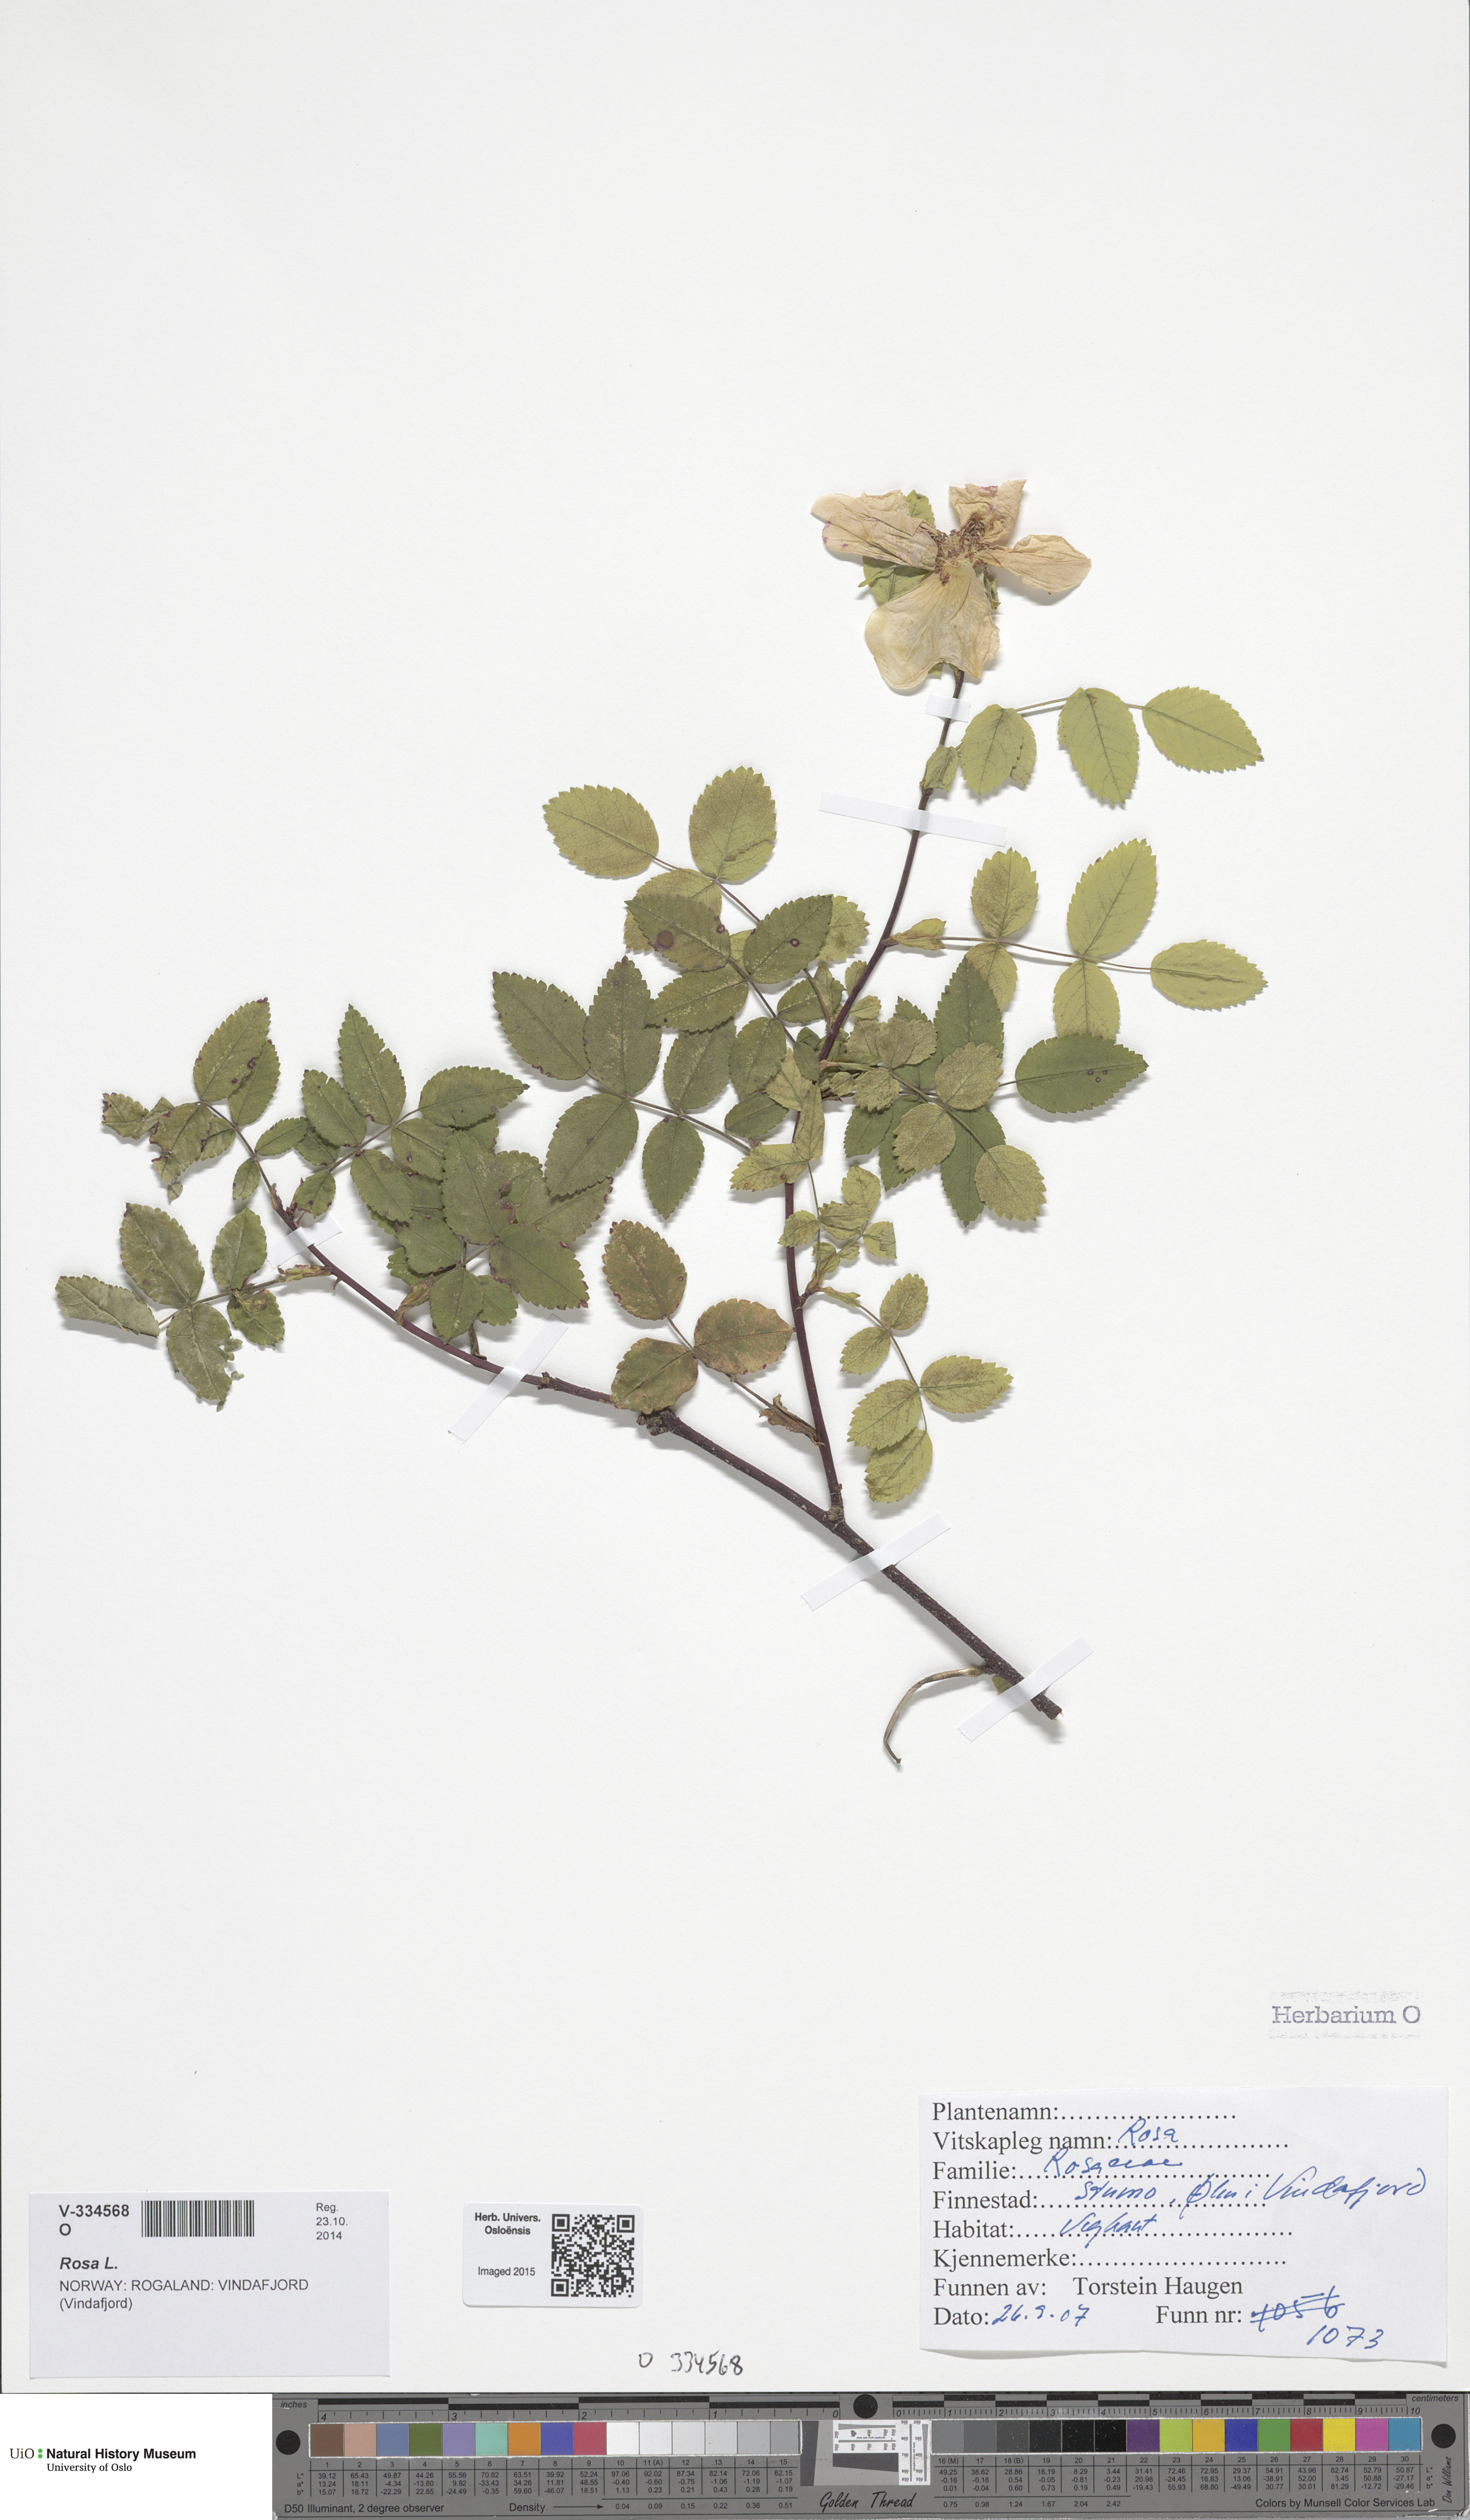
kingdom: Plantae
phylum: Tracheophyta
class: Magnoliopsida
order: Rosales
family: Rosaceae
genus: Rosa
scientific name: Rosa subcollina
